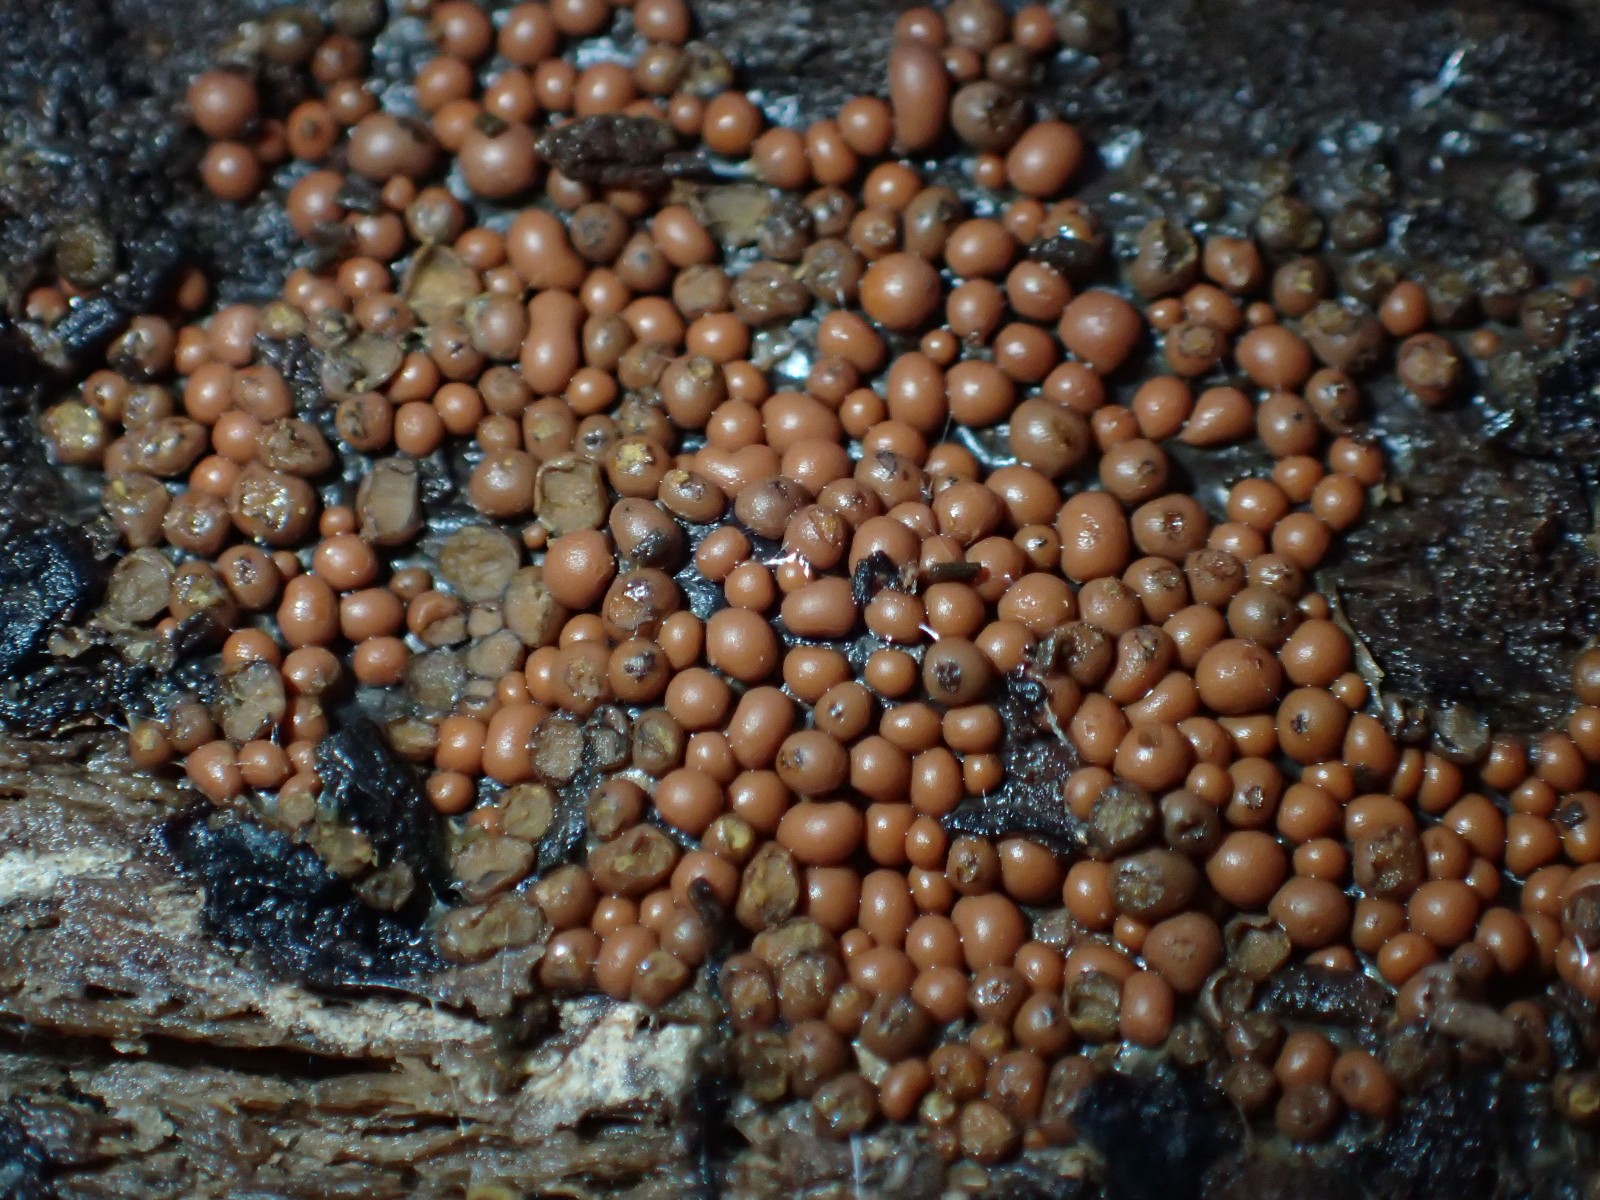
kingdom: Protozoa
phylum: Mycetozoa
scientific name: Mycetozoa
